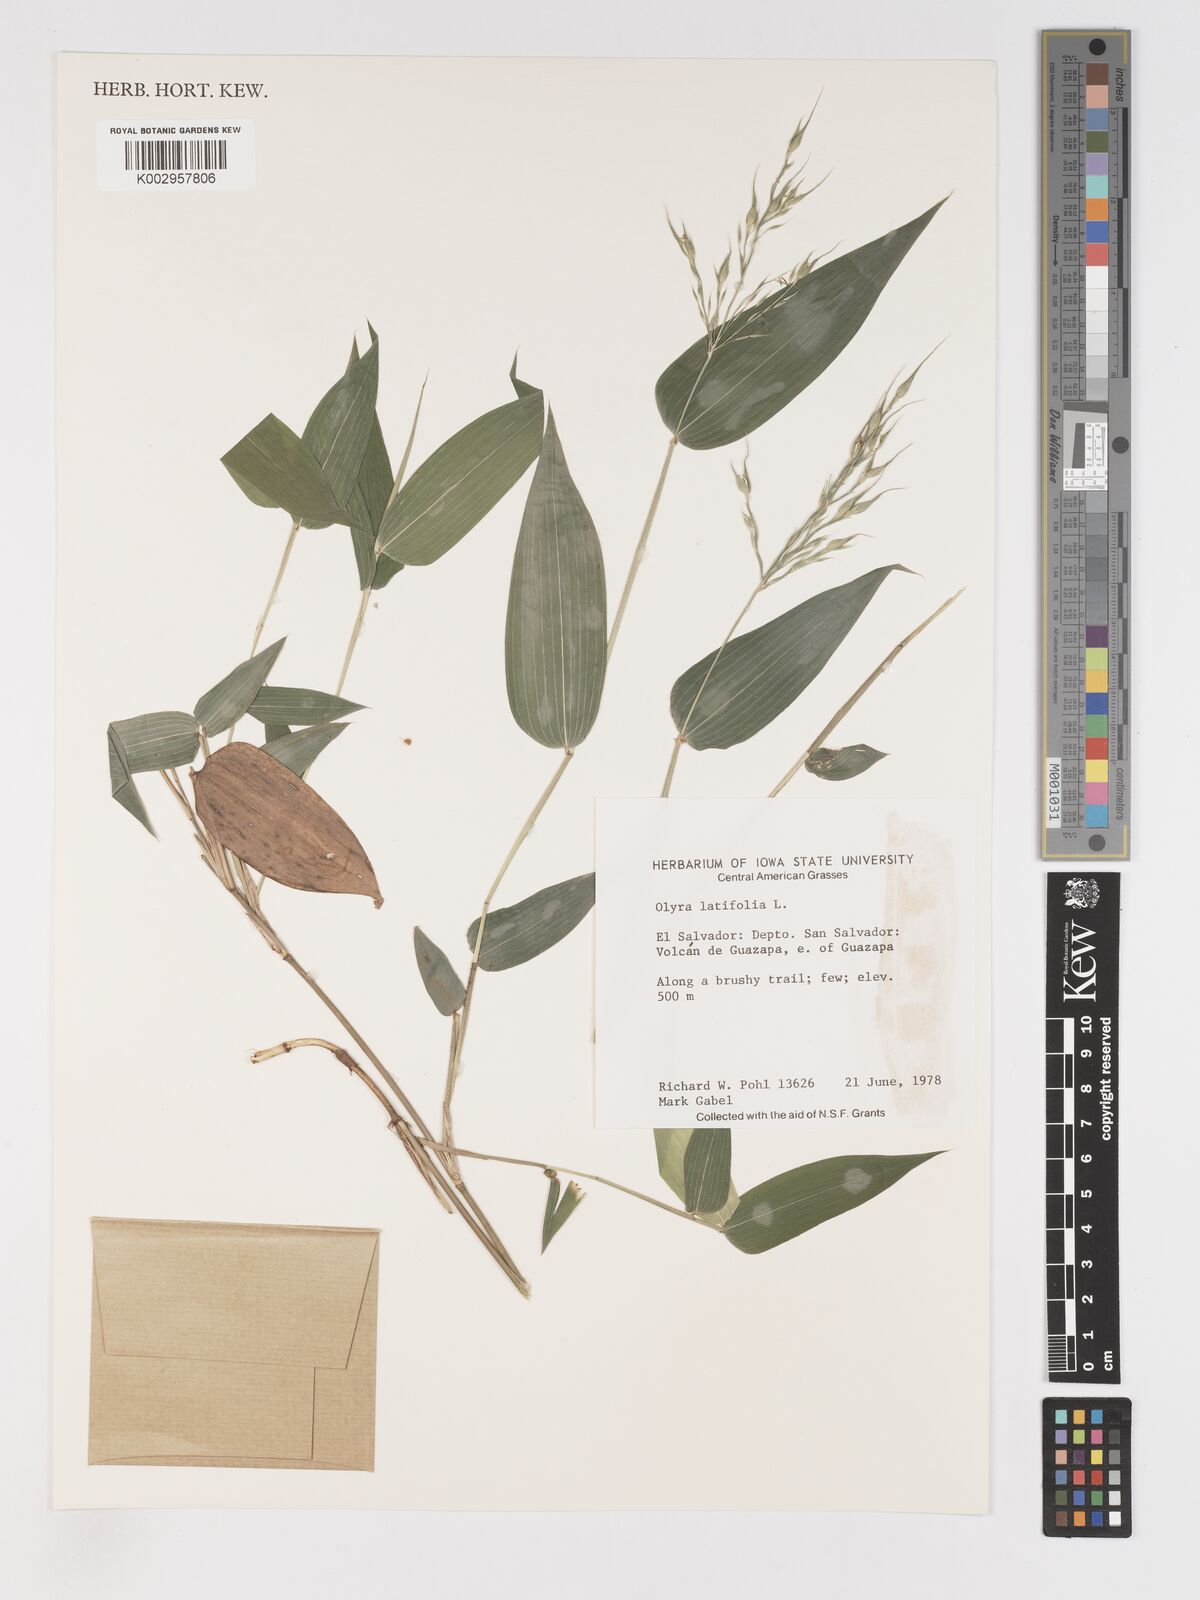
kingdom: Plantae
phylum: Tracheophyta
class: Liliopsida
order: Poales
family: Poaceae
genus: Olyra
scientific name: Olyra latifolia
